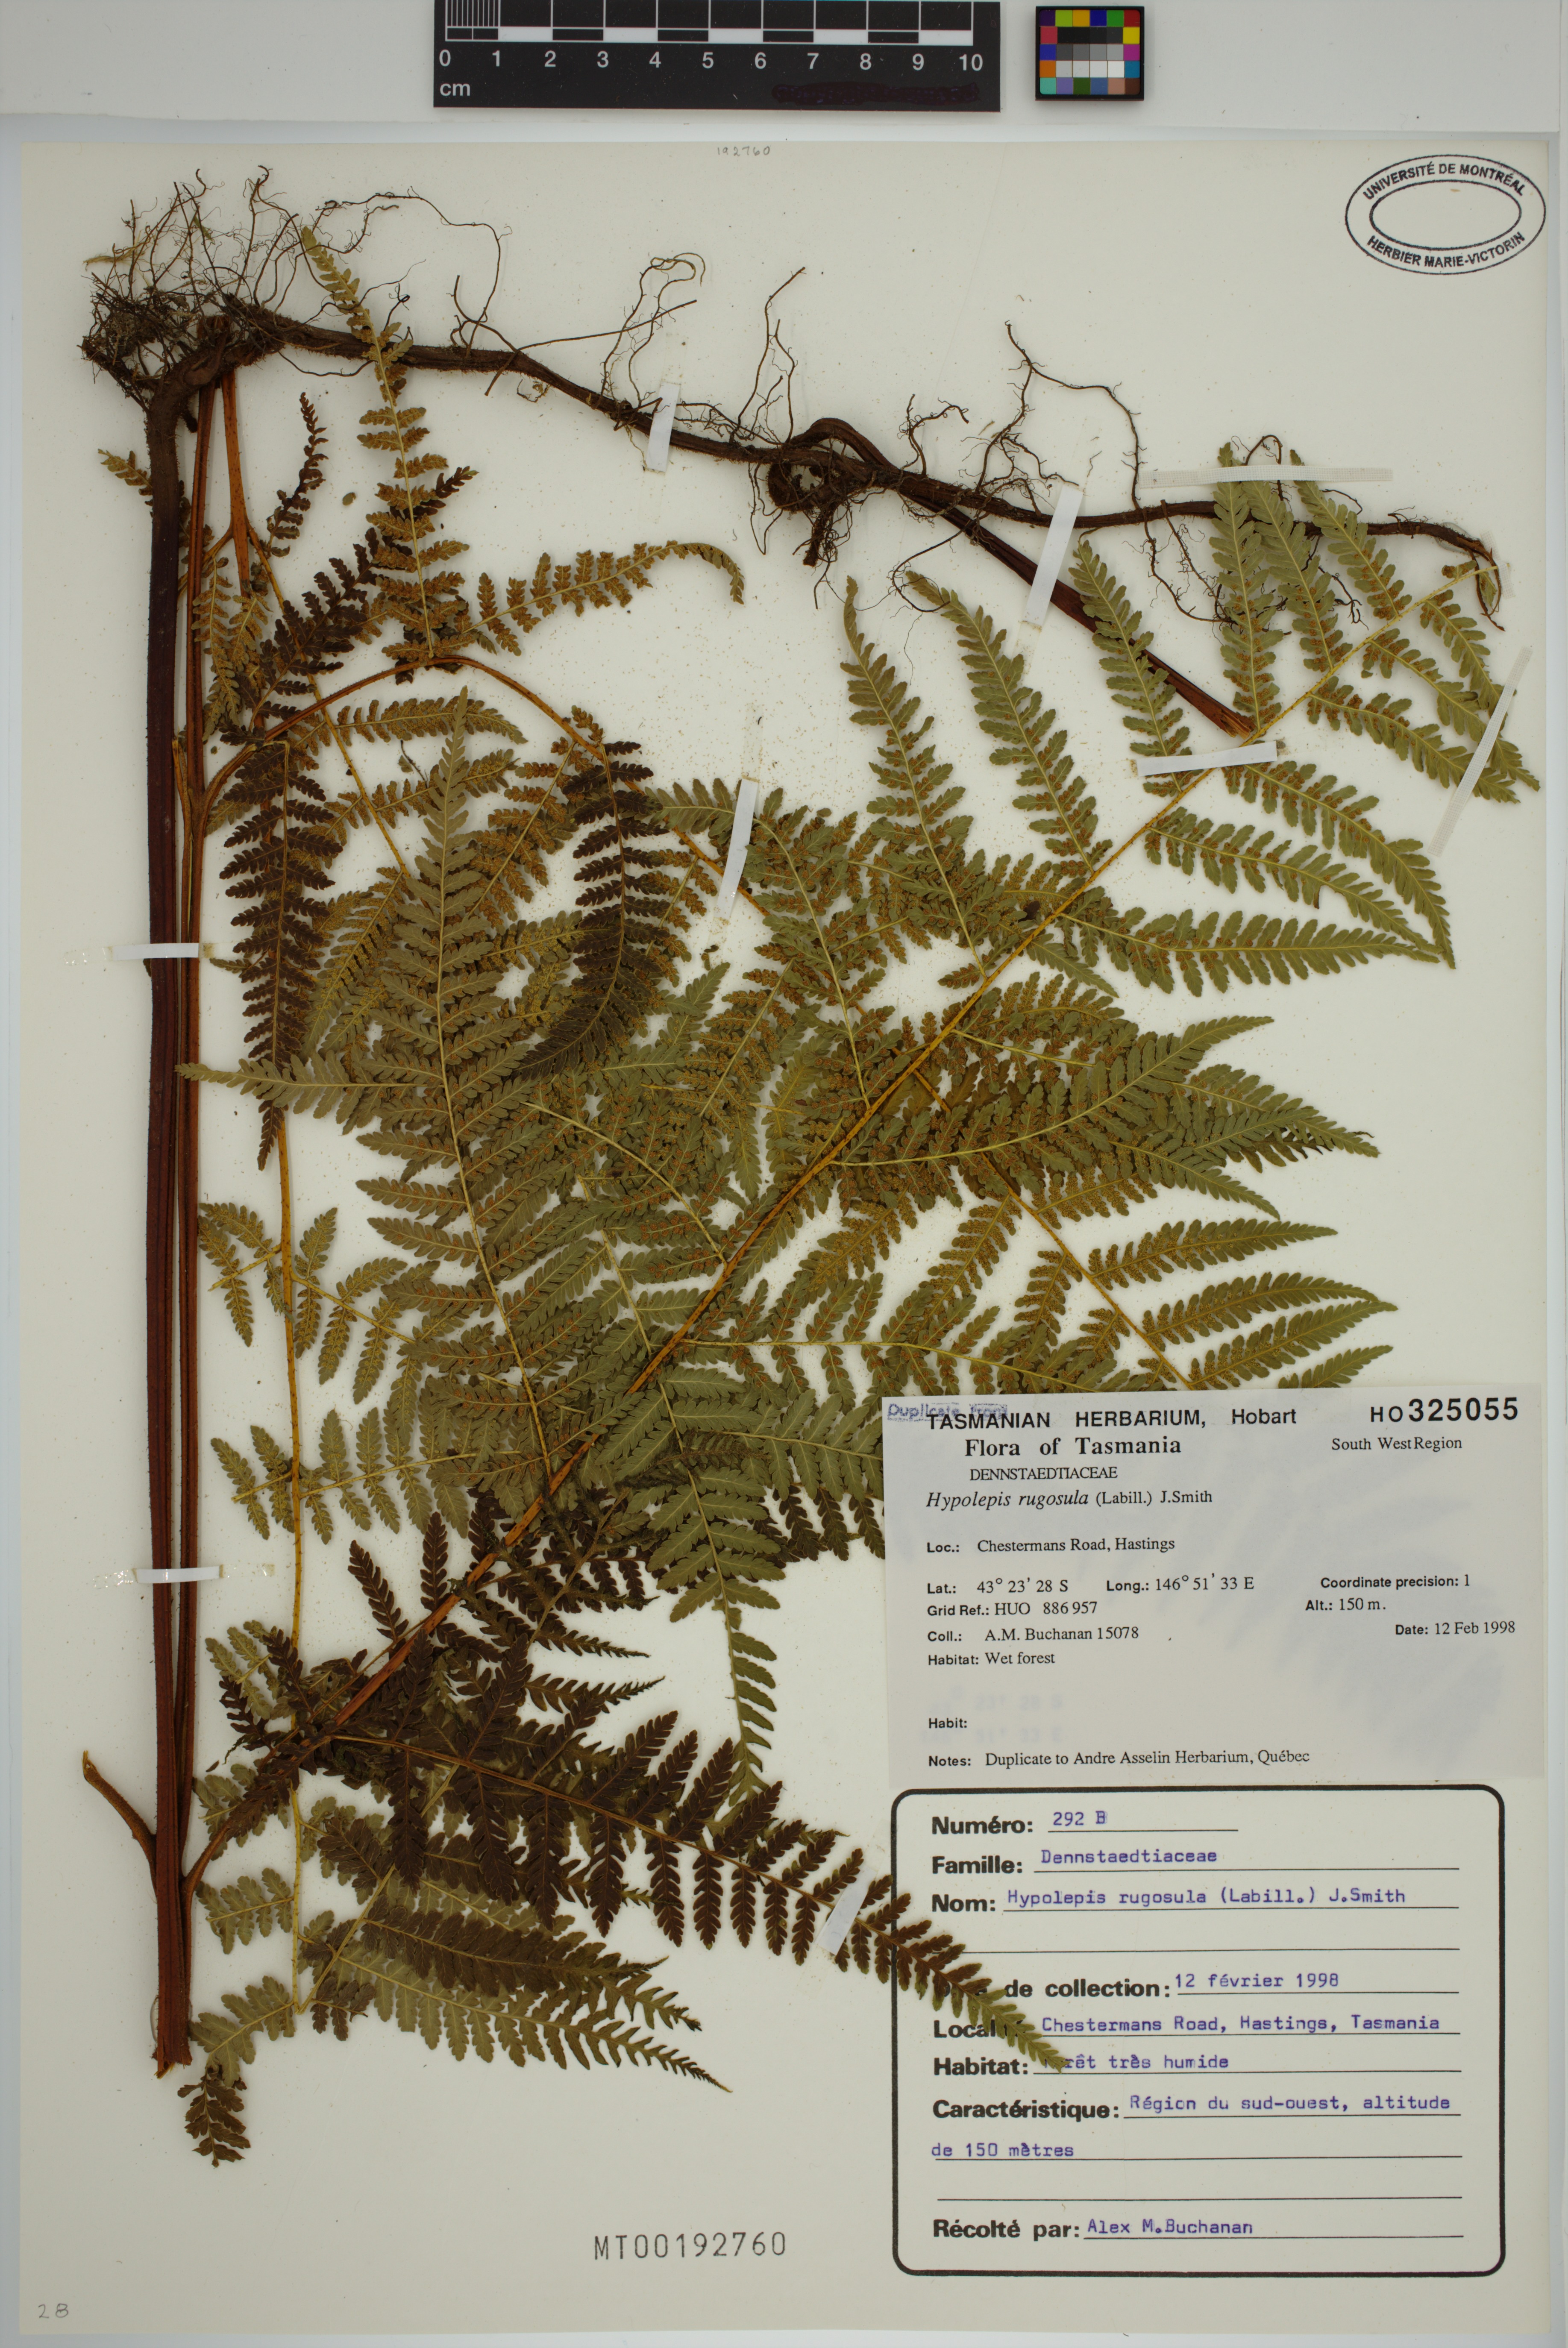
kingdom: Plantae
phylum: Tracheophyta
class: Polypodiopsida
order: Polypodiales
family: Dennstaedtiaceae
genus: Hypolepis
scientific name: Hypolepis rugosula
